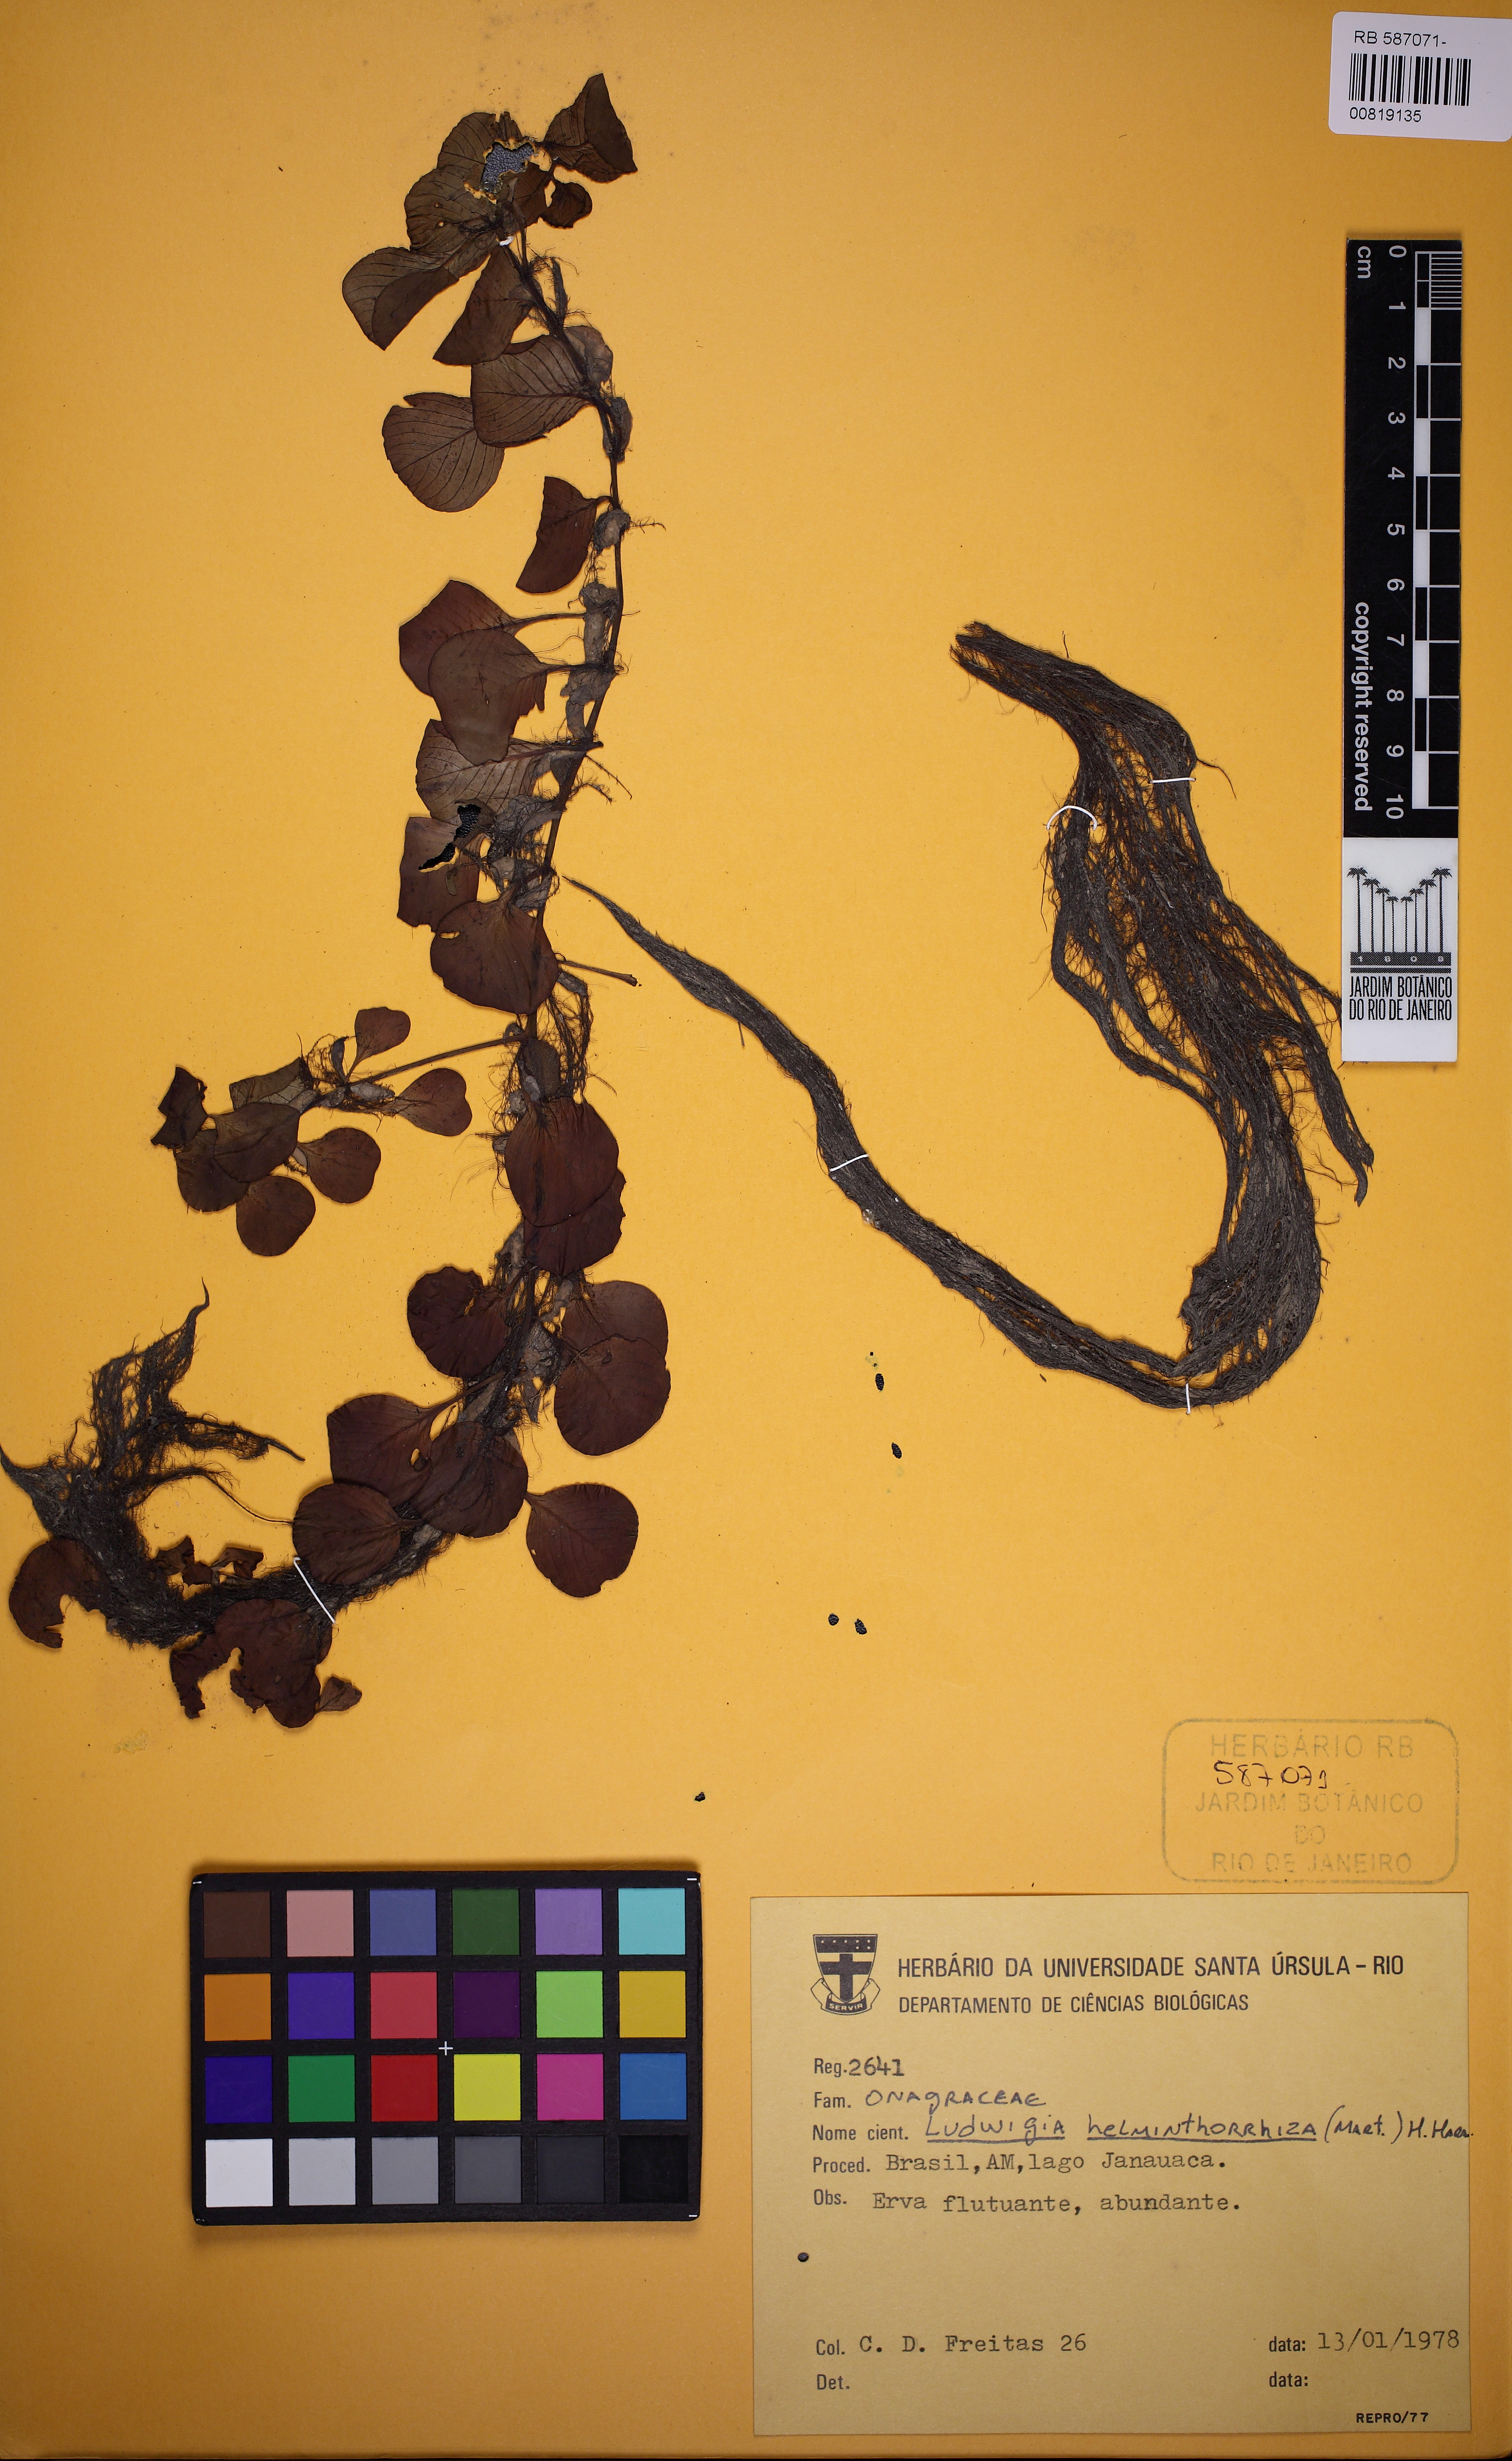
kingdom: Plantae
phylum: Tracheophyta
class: Magnoliopsida
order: Myrtales
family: Onagraceae
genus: Ludwigia
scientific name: Ludwigia helminthorrhiza
